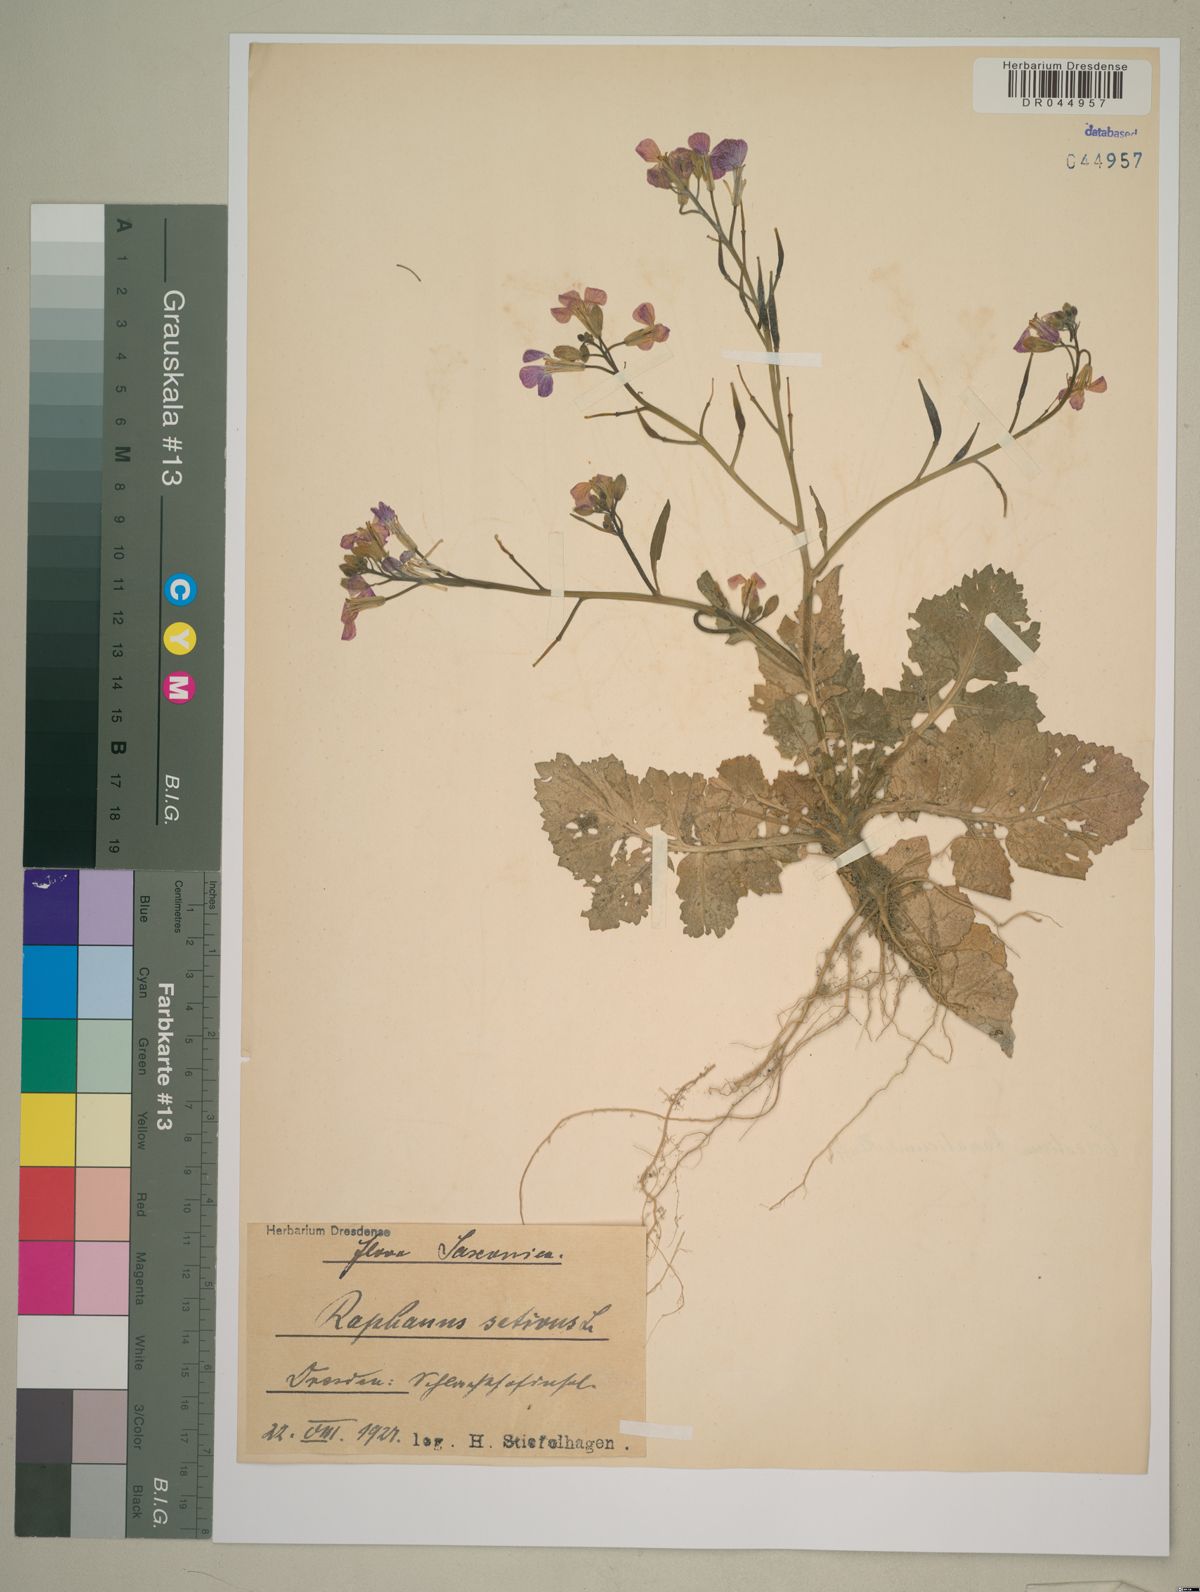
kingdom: Plantae
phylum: Tracheophyta
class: Magnoliopsida
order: Brassicales
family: Brassicaceae
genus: Raphanus
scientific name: Raphanus sativus
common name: Cultivated radish
